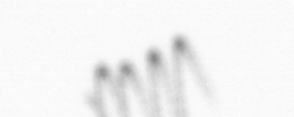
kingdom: Chromista
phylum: Ochrophyta
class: Bacillariophyceae
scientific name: Bacillariophyceae
